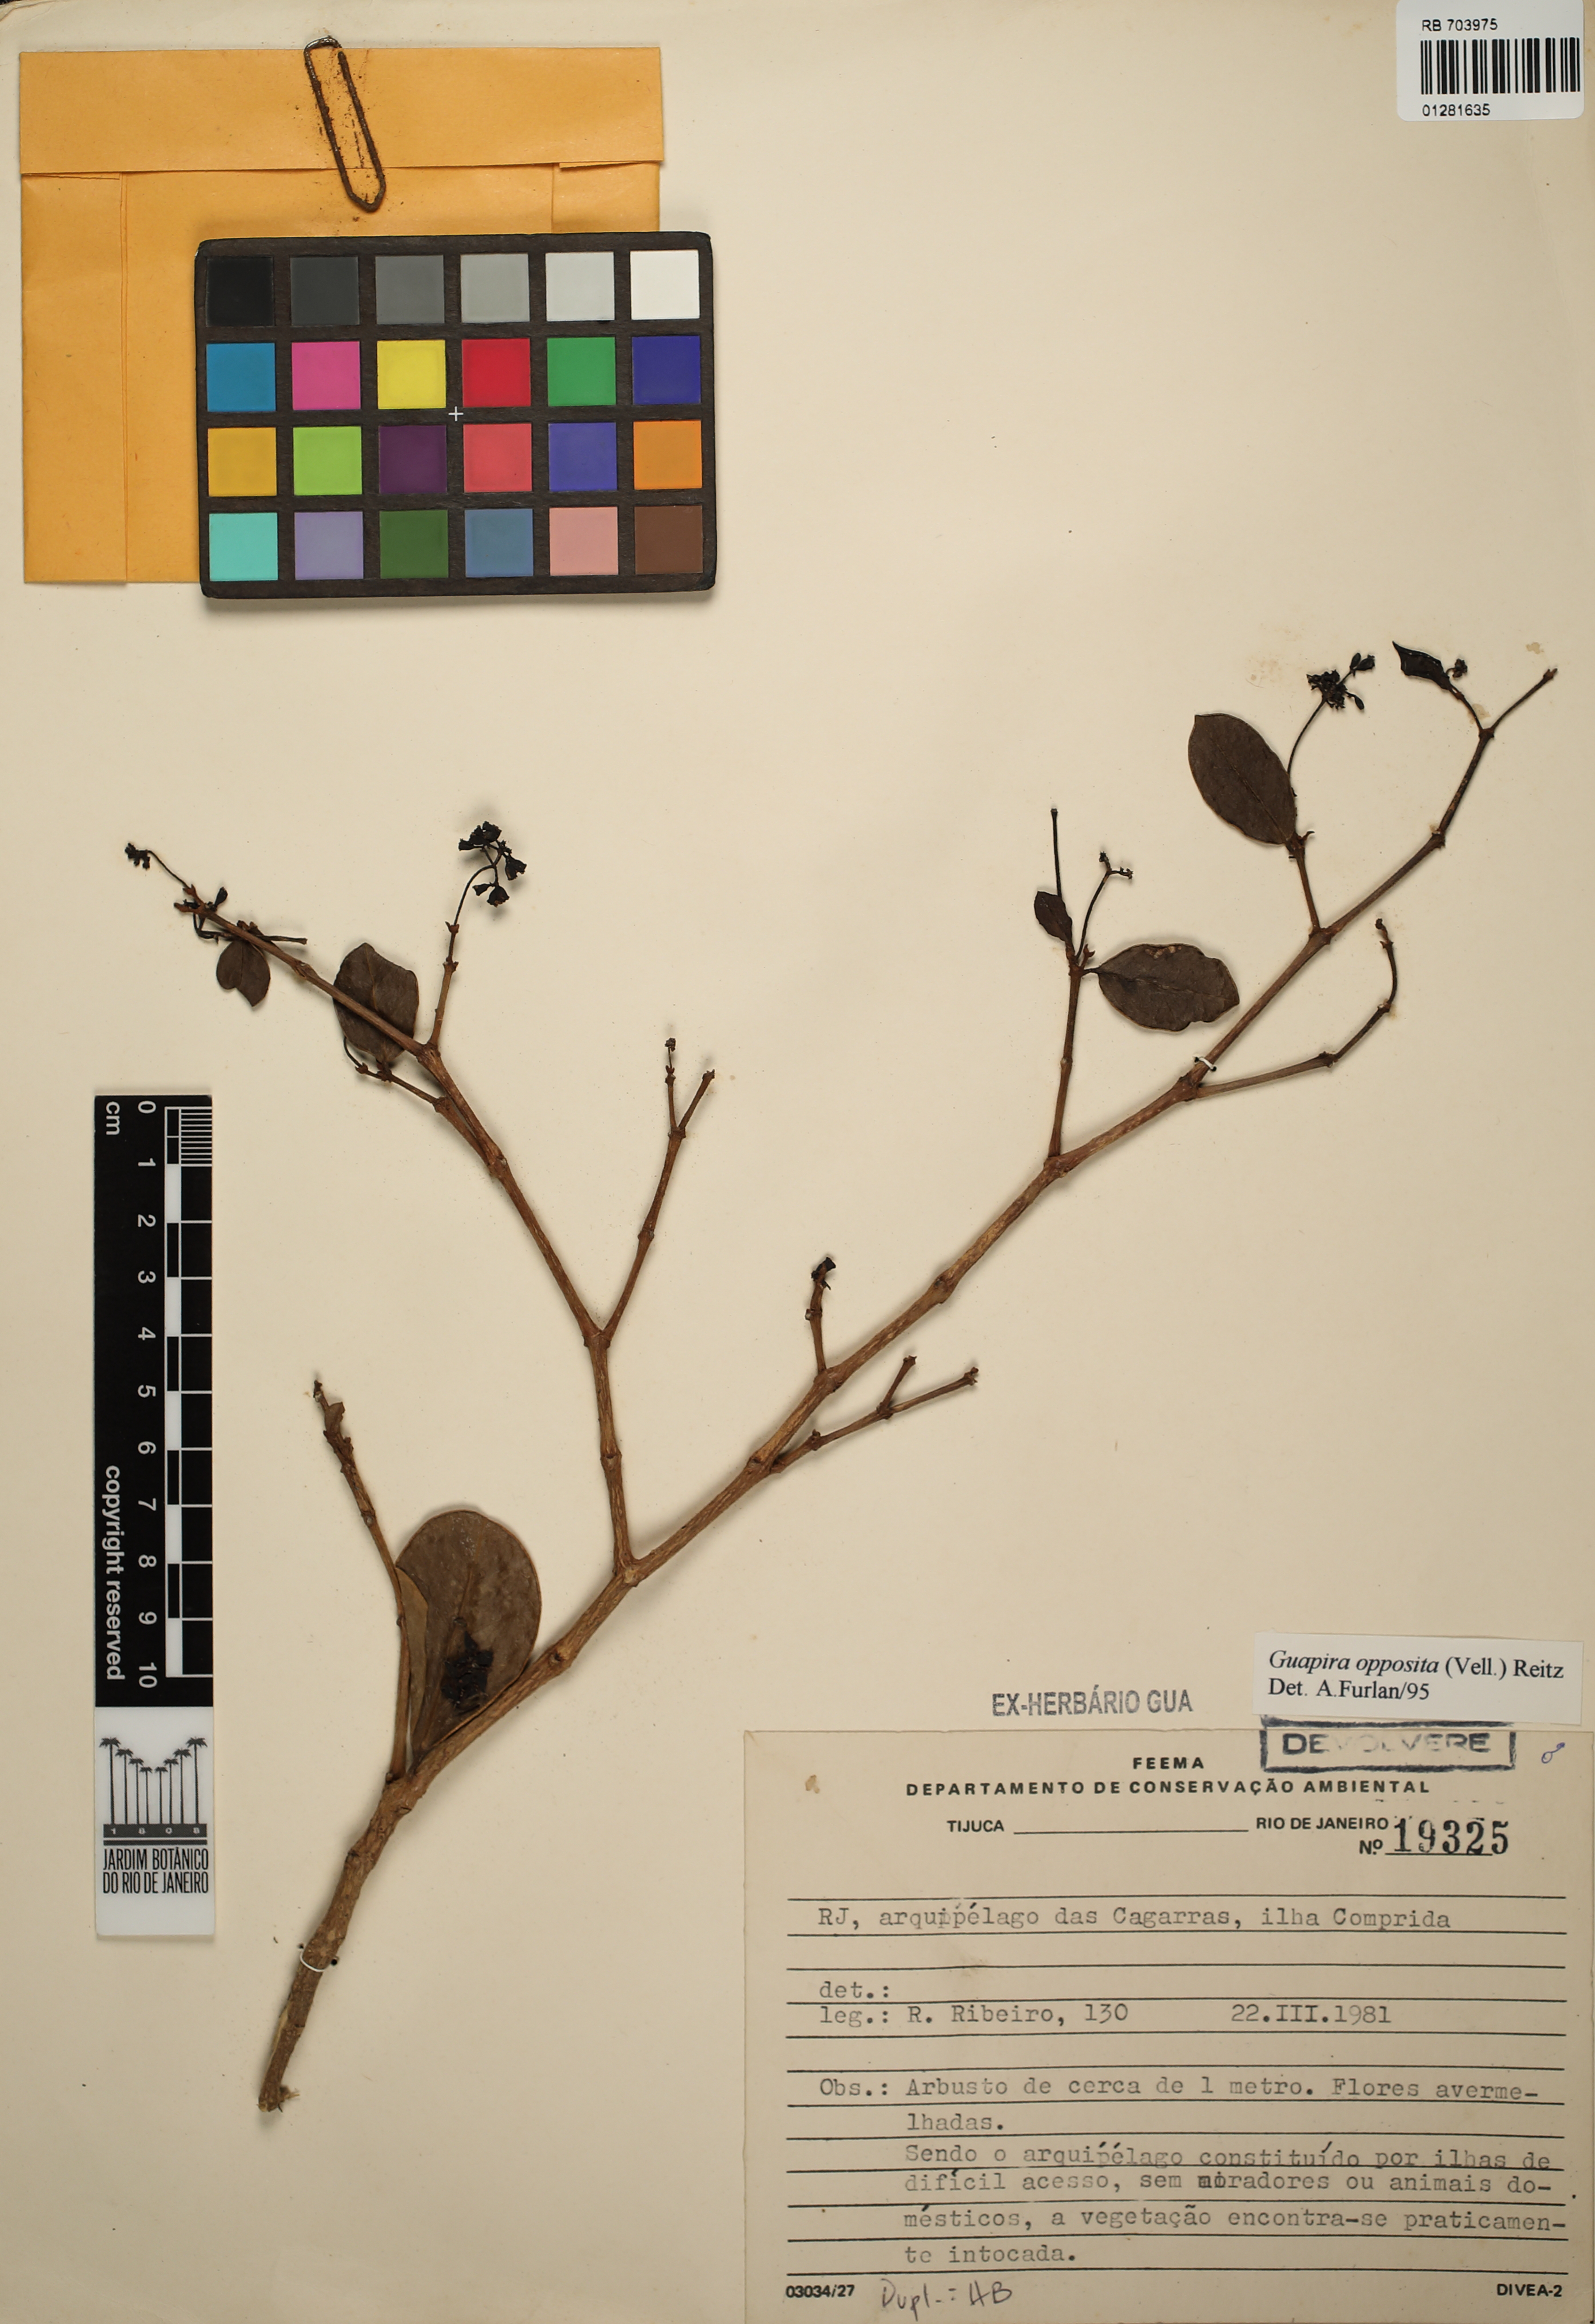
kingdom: Plantae
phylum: Tracheophyta
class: Magnoliopsida
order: Caryophyllales
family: Nyctaginaceae
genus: Guapira
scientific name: Guapira opposita
